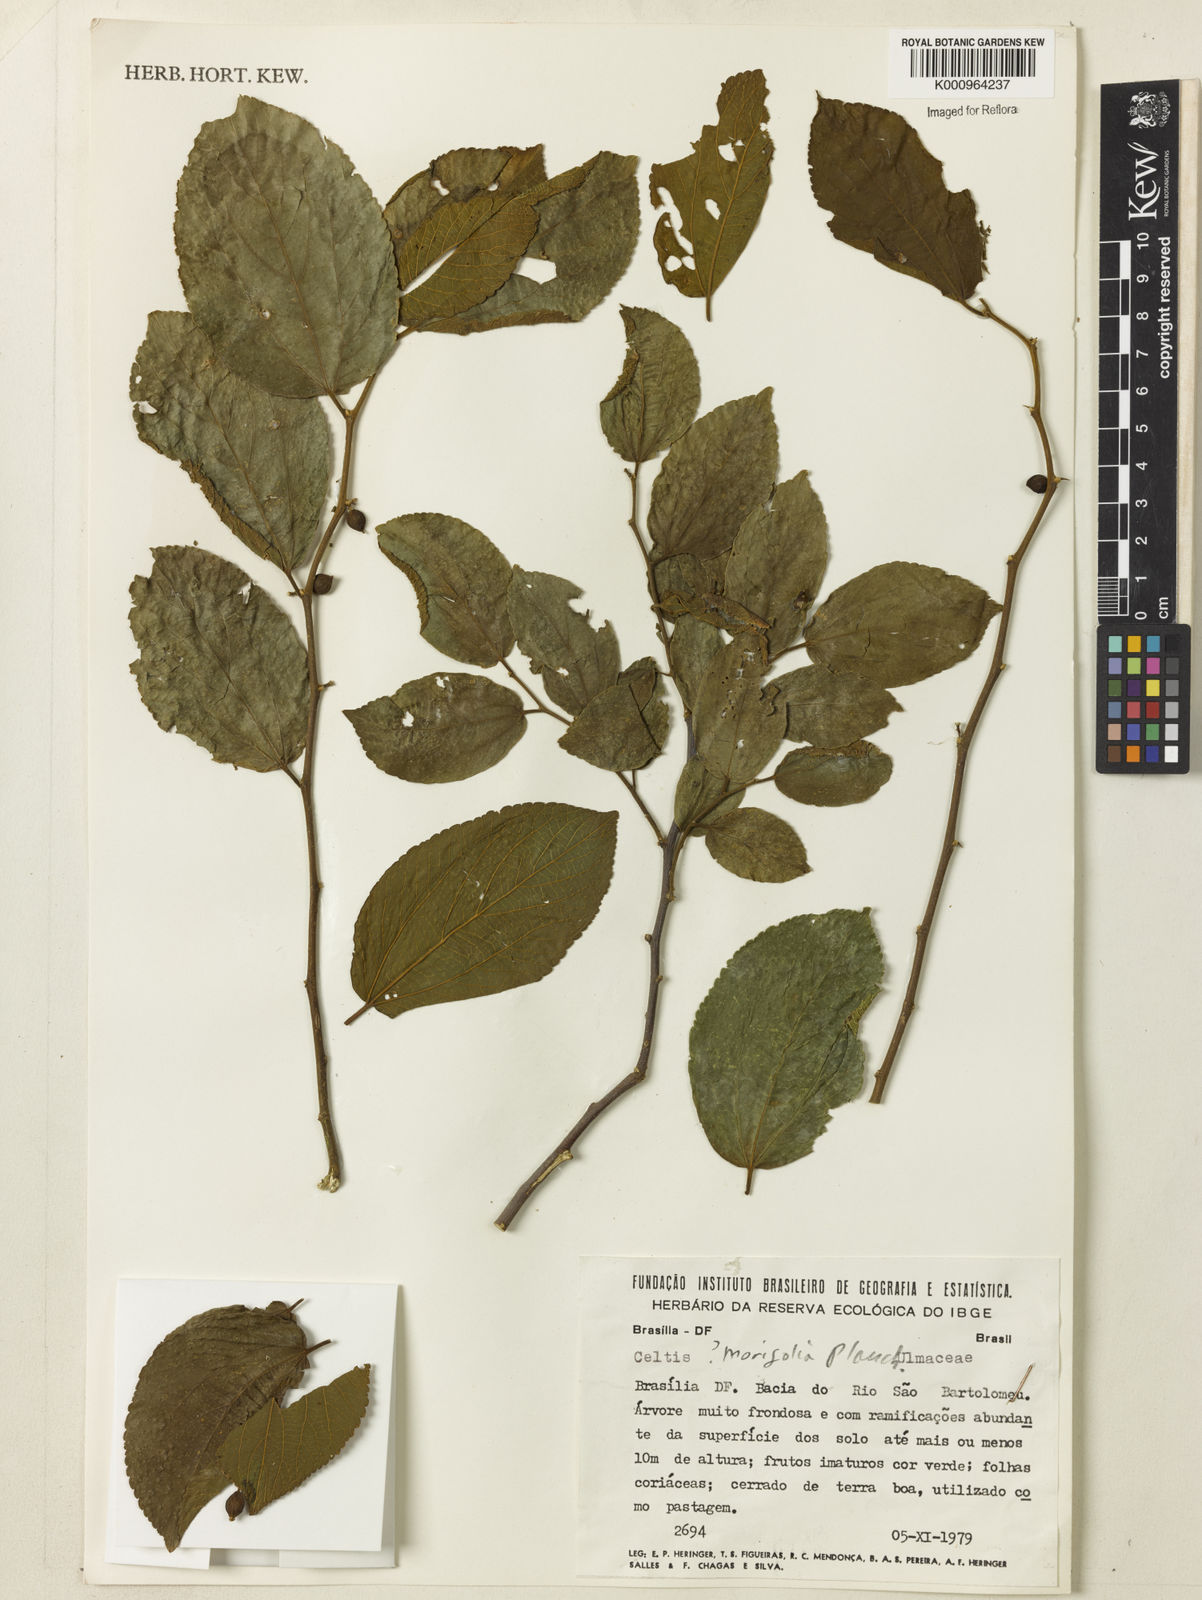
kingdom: Plantae
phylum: Tracheophyta
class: Magnoliopsida
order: Rosales
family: Cannabaceae
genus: Celtis
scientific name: Celtis iguanaea
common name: Iguana hackberry
